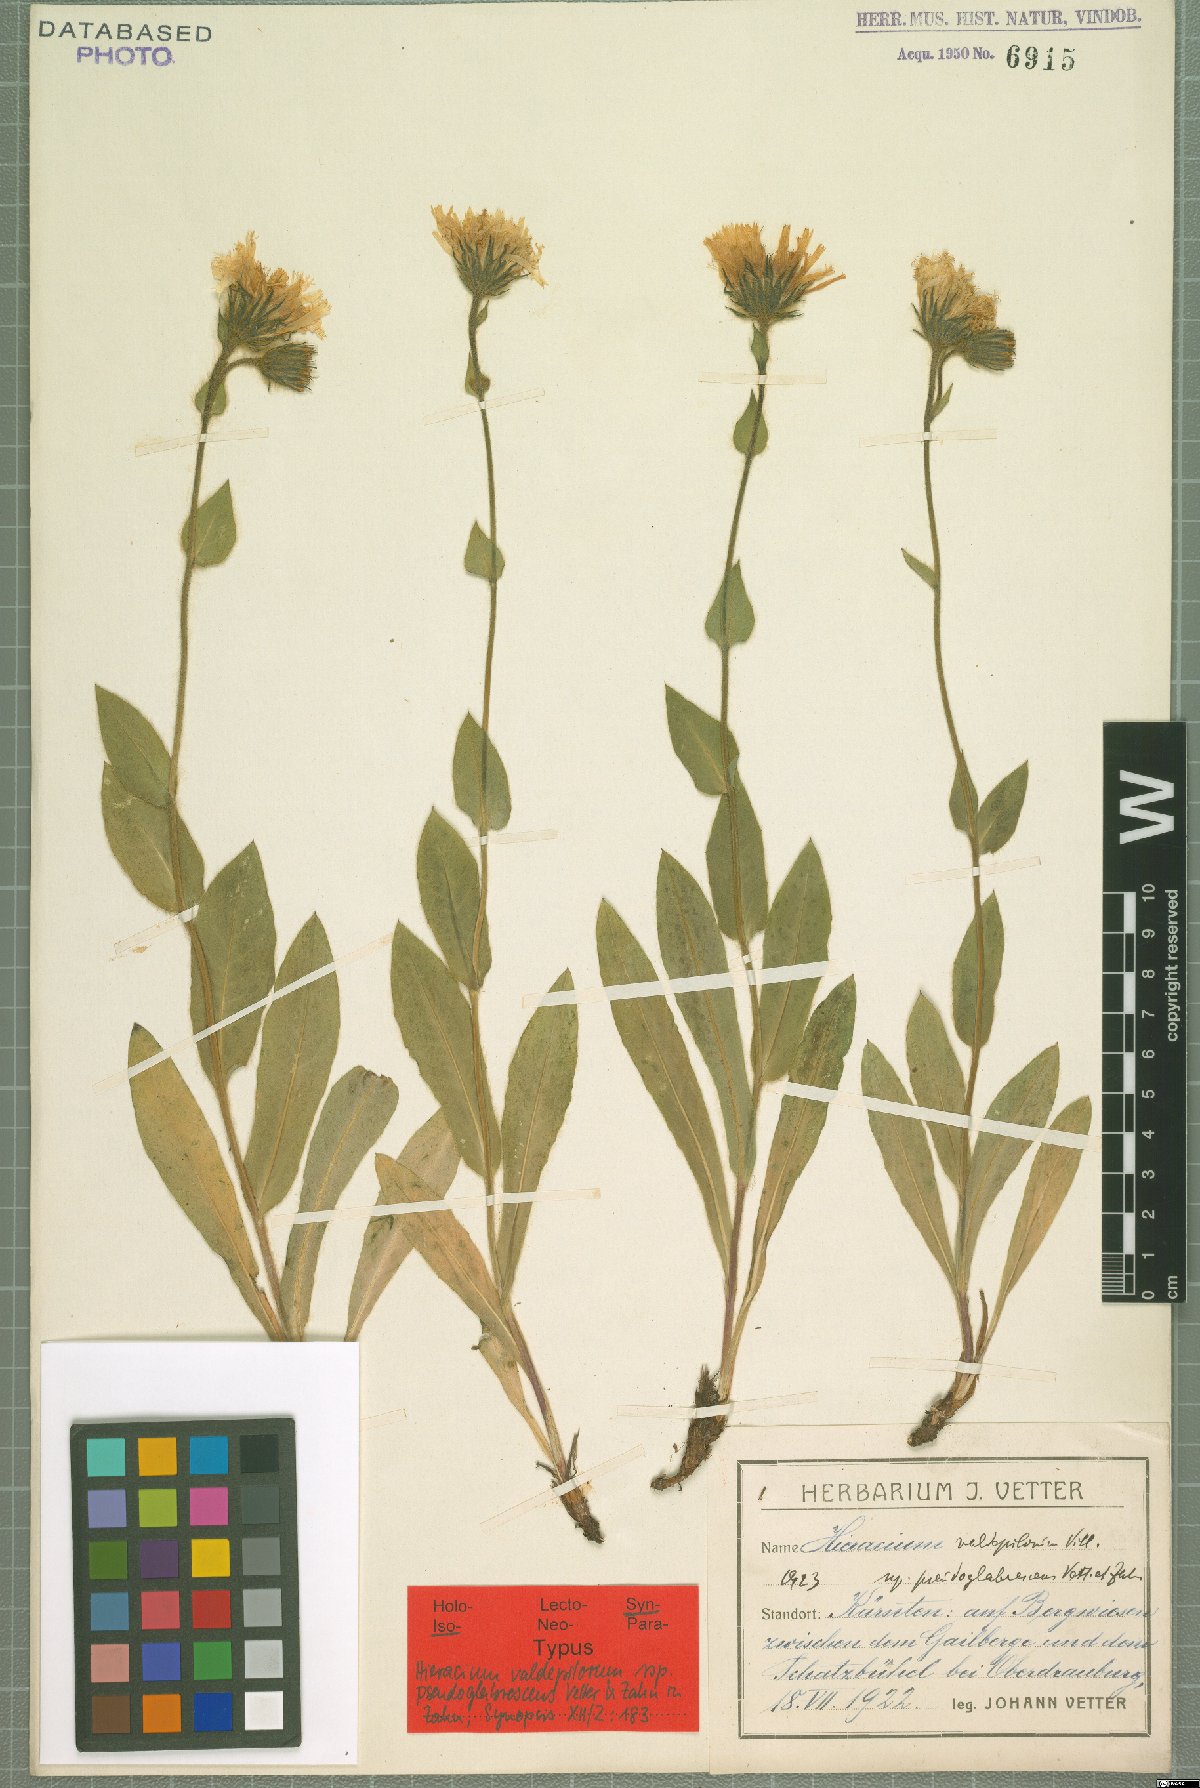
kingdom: Plantae
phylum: Tracheophyta
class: Magnoliopsida
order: Asterales
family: Asteraceae
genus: Hieracium
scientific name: Hieracium valdepilosum
